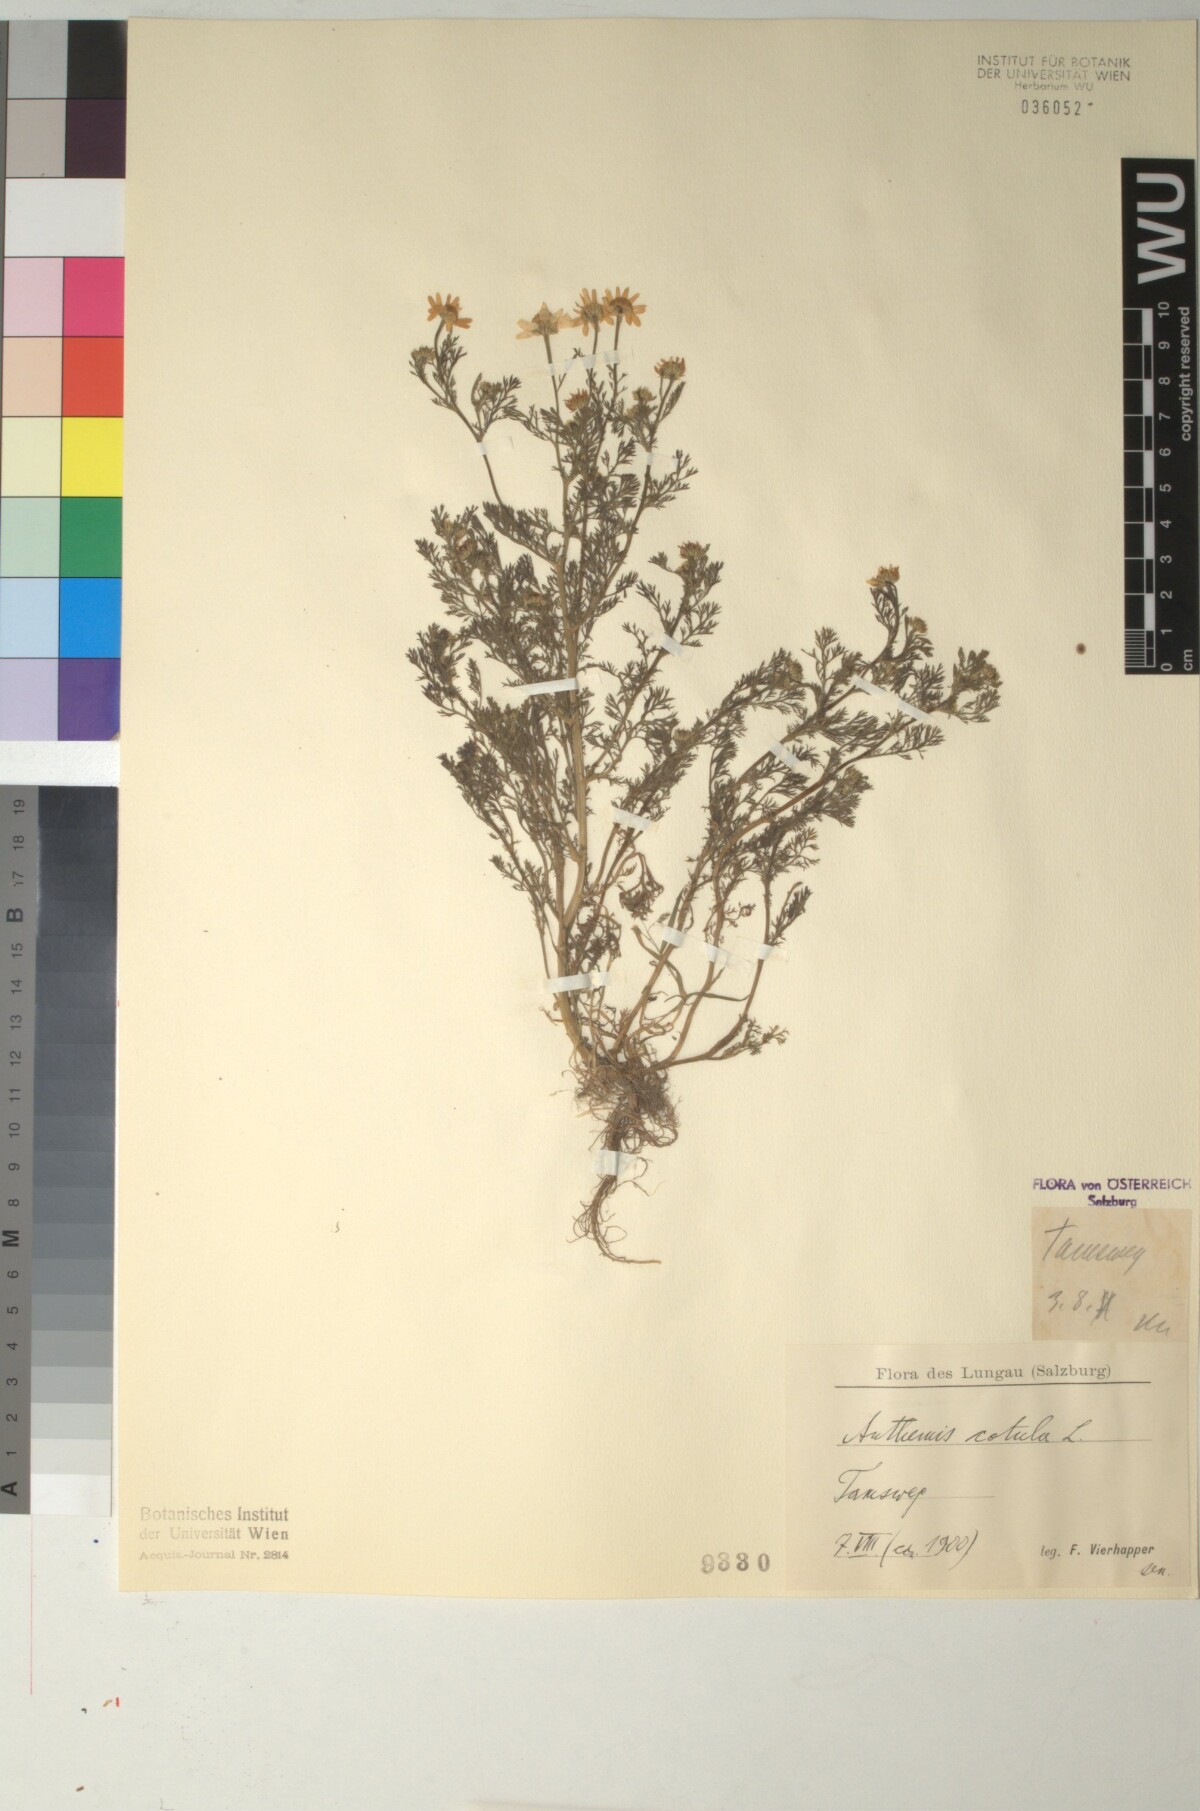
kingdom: Plantae
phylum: Tracheophyta
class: Magnoliopsida
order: Asterales
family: Asteraceae
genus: Anthemis
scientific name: Anthemis cotula
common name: Stinking chamomile
